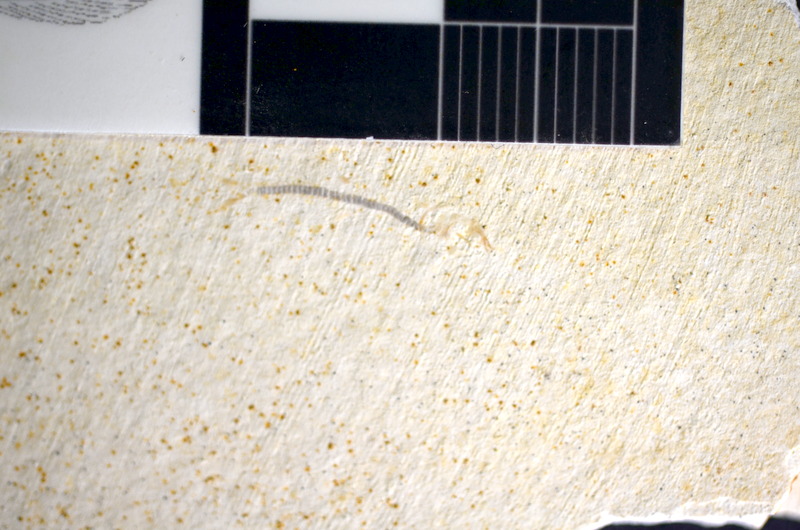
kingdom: Animalia
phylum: Chordata
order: Salmoniformes
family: Orthogonikleithridae
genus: Orthogonikleithrus
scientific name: Orthogonikleithrus hoelli
